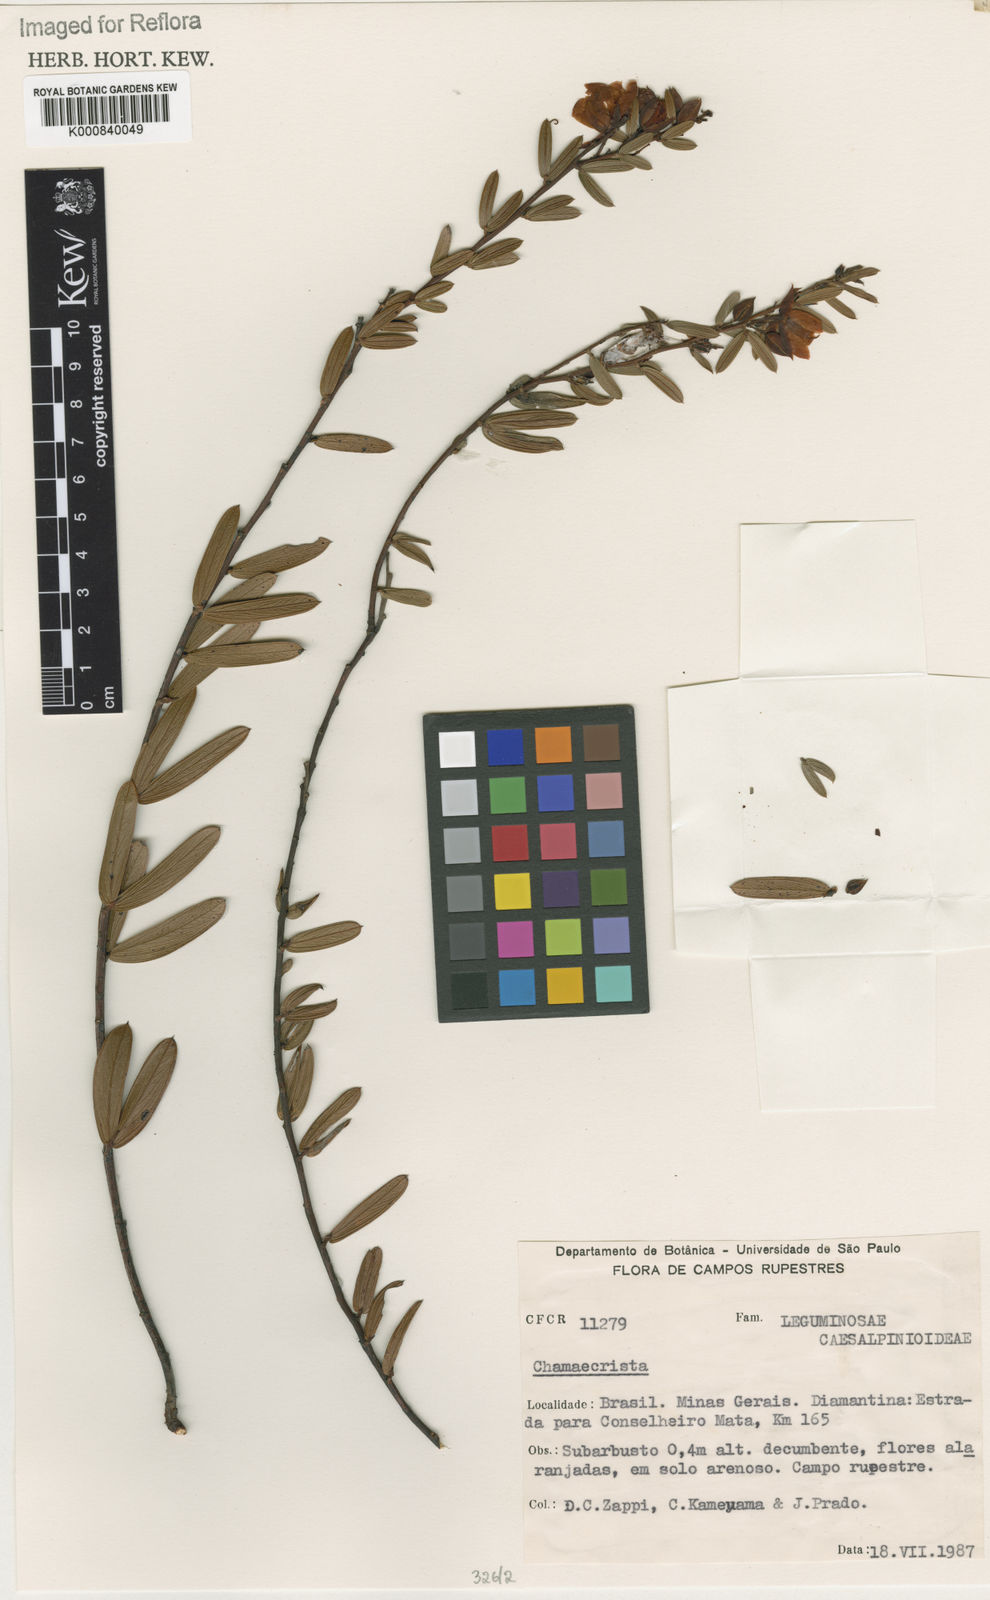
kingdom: Plantae
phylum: Tracheophyta
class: Magnoliopsida
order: Fabales
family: Fabaceae
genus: Chamaecrista
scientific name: Chamaecrista simplifacta
